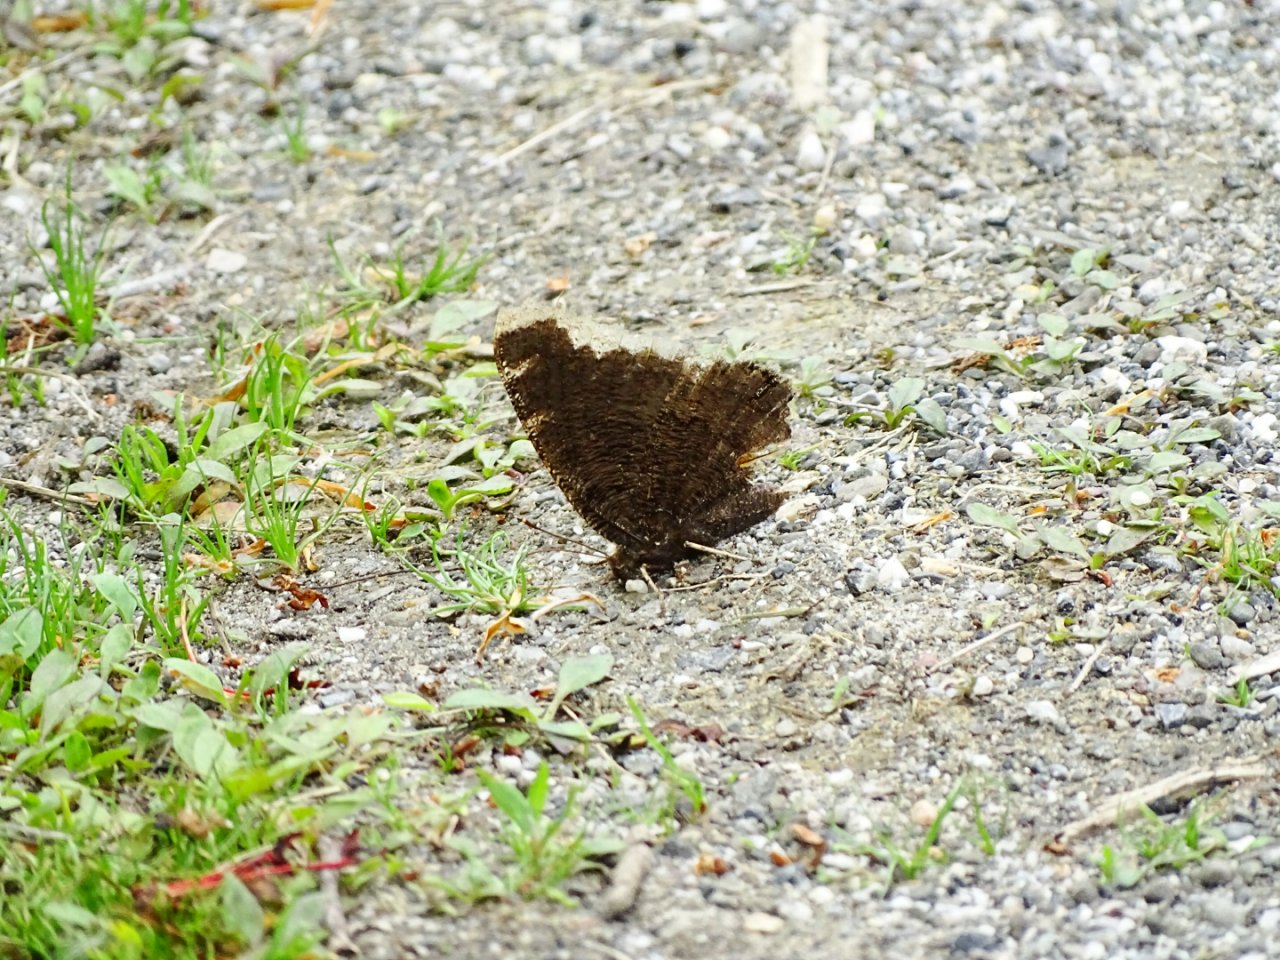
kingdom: Animalia
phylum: Arthropoda
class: Insecta
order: Lepidoptera
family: Nymphalidae
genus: Nymphalis
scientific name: Nymphalis antiopa
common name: Mourning Cloak
